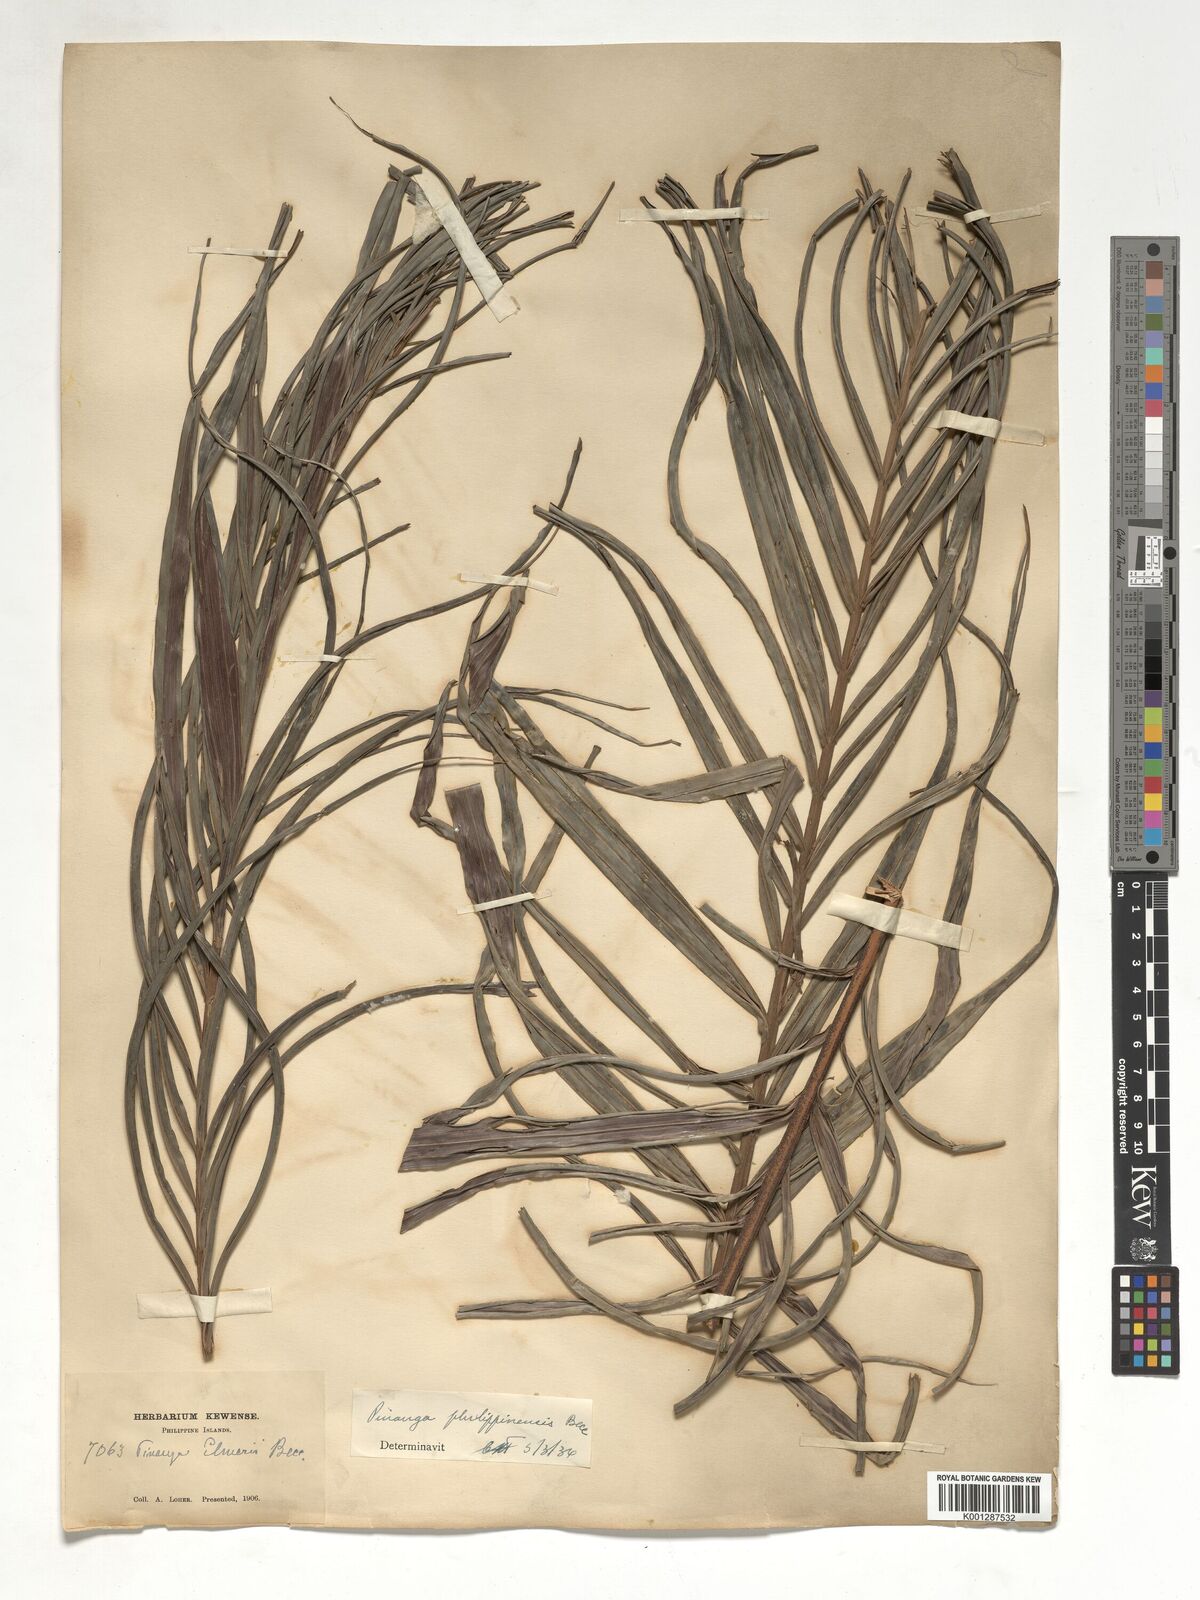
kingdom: Plantae
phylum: Tracheophyta
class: Liliopsida
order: Arecales
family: Arecaceae
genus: Pinanga
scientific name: Pinanga philippinensis
